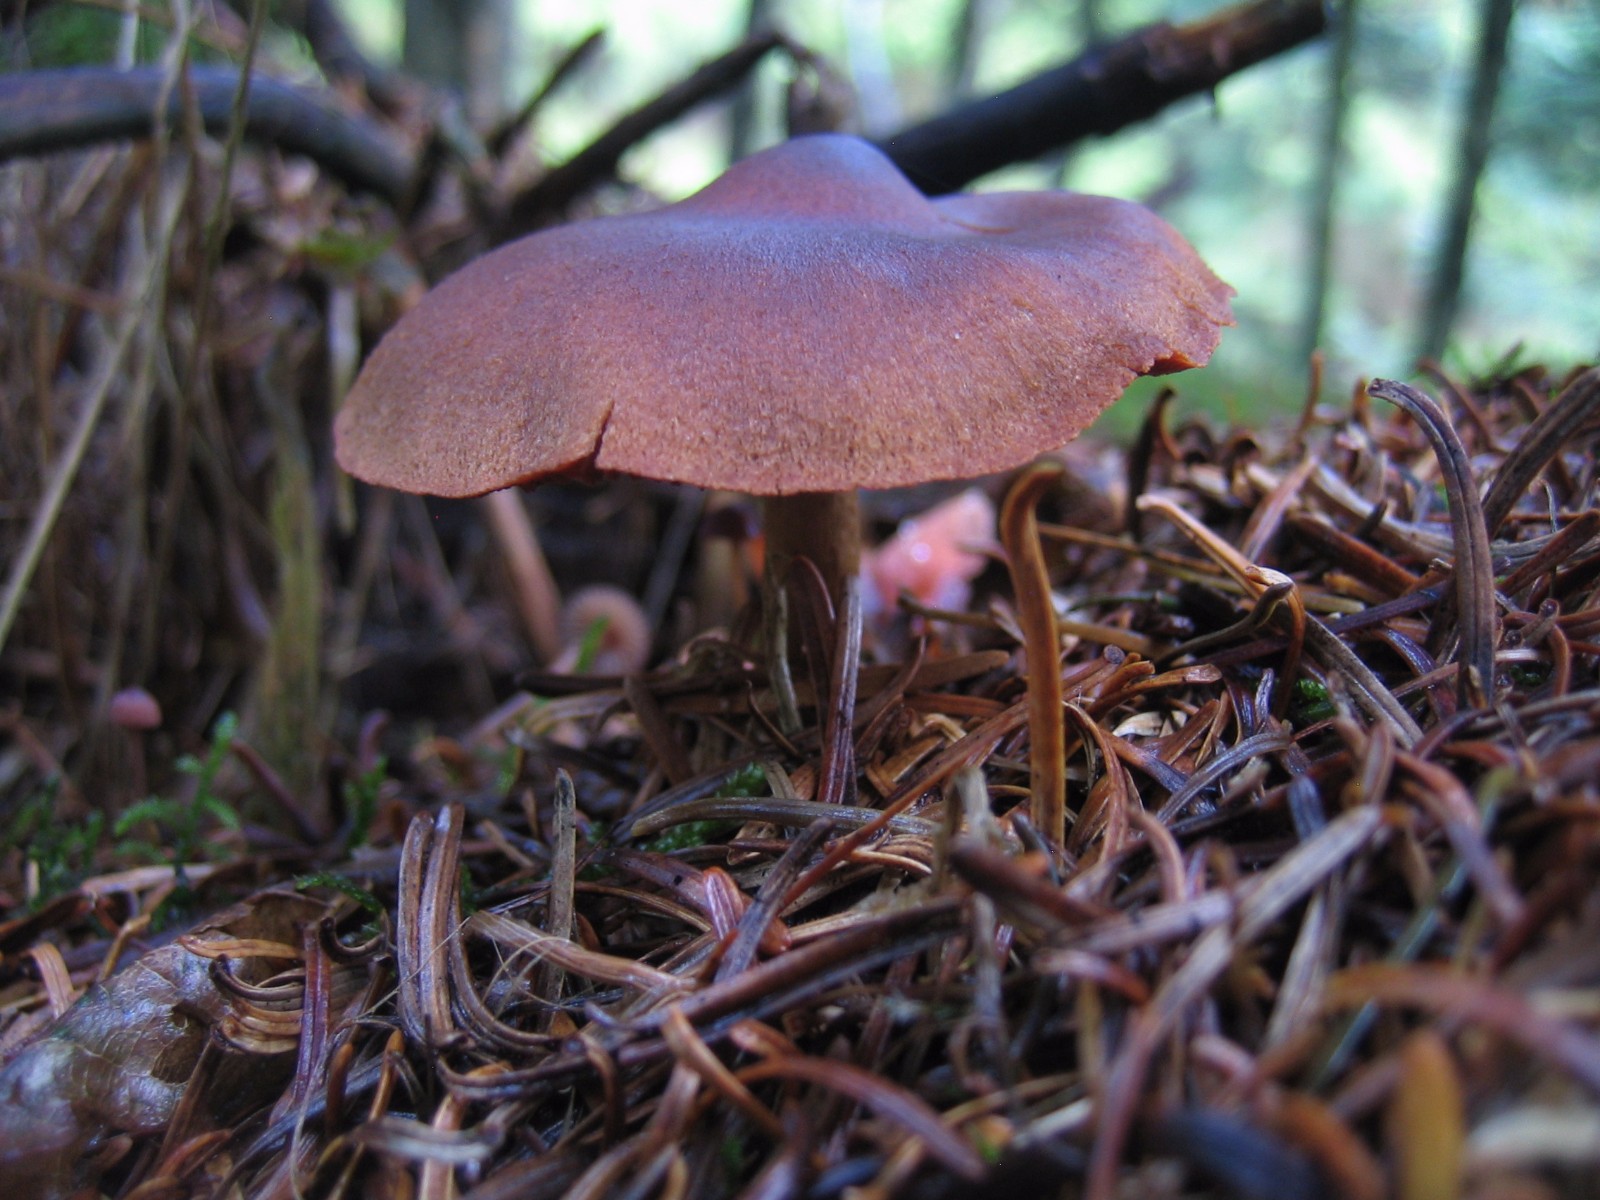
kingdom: Fungi
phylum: Basidiomycota
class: Agaricomycetes
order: Agaricales
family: Cortinariaceae
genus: Cortinarius
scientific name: Cortinarius
